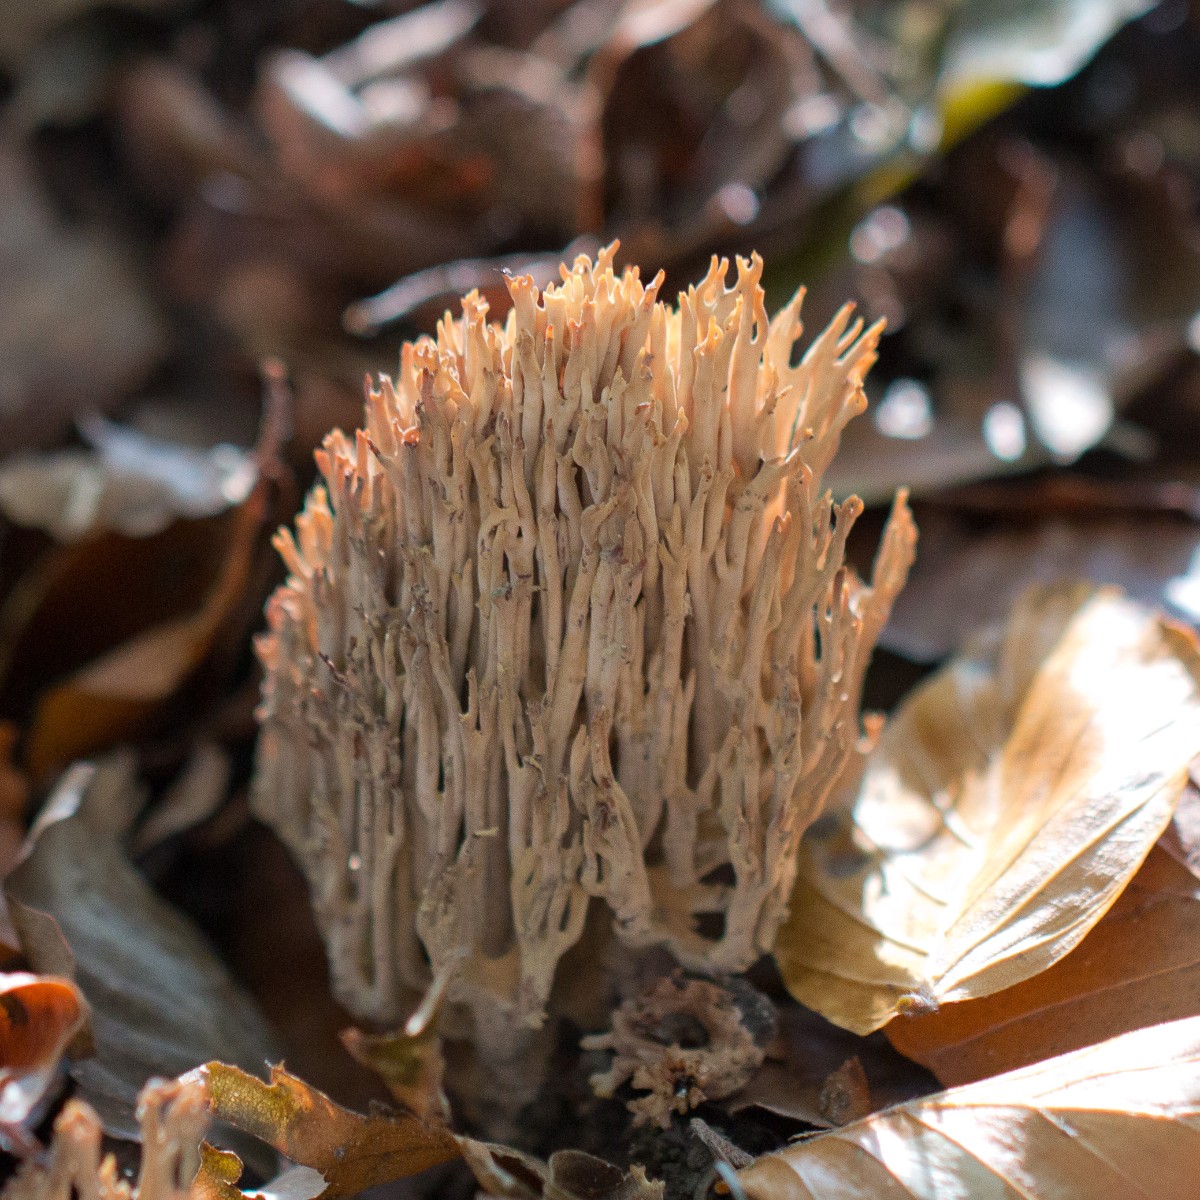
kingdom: Fungi
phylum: Basidiomycota
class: Agaricomycetes
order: Gomphales
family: Gomphaceae
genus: Ramaria
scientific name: Ramaria stricta
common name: rank koralsvamp
